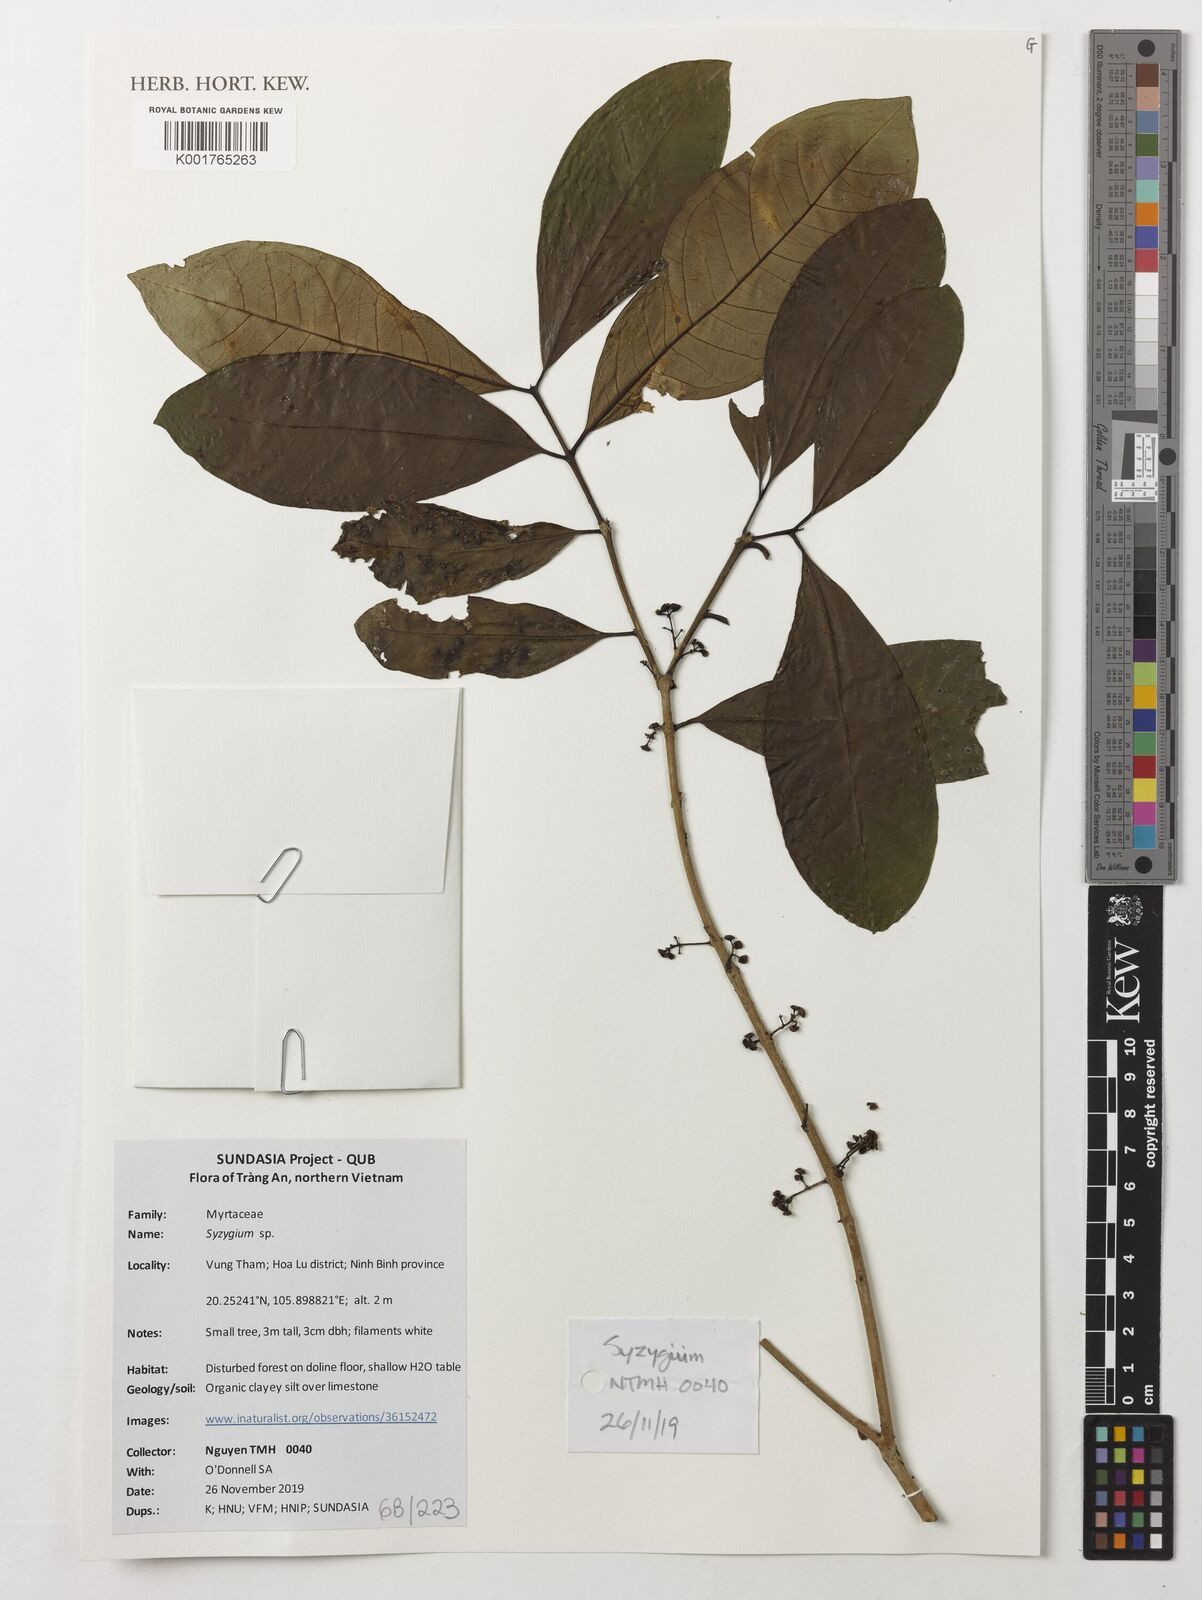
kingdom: Plantae
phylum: Tracheophyta
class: Magnoliopsida
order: Myrtales
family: Myrtaceae
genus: Syzygium
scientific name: Syzygium
